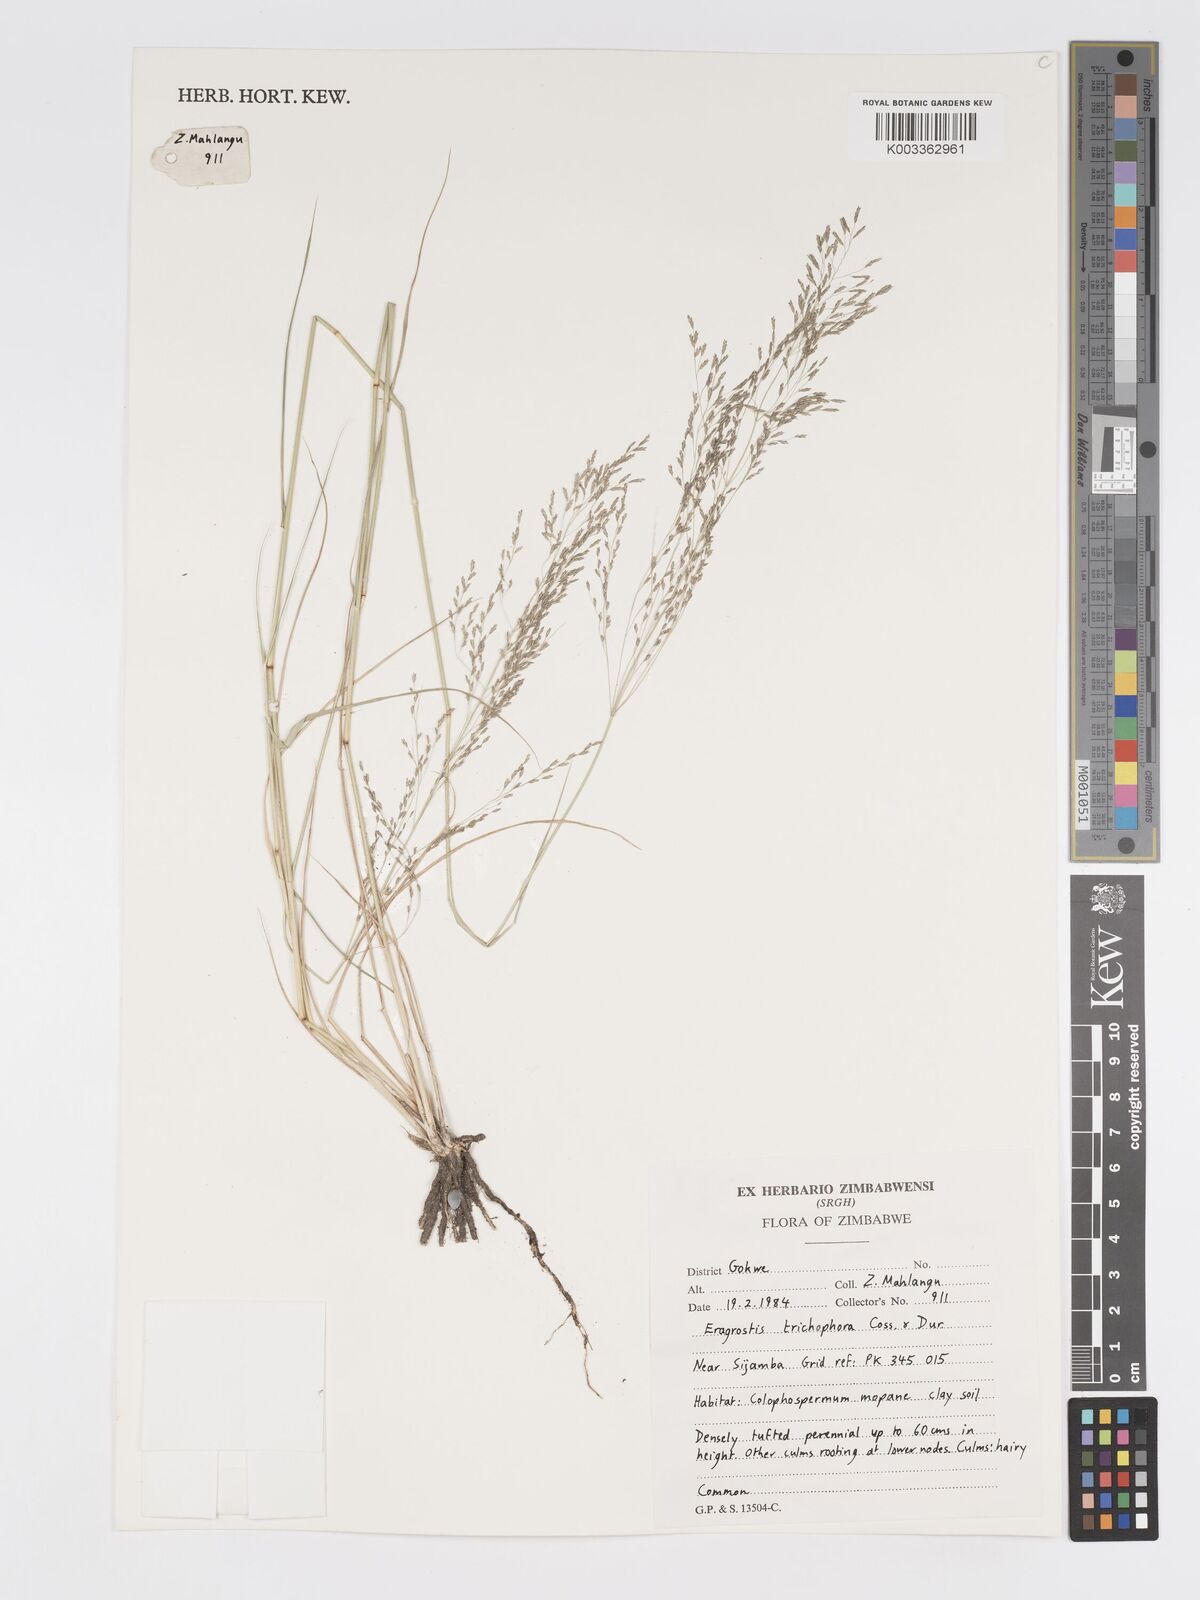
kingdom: Plantae
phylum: Tracheophyta
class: Liliopsida
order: Poales
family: Poaceae
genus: Eragrostis
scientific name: Eragrostis cylindriflora
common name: Cylinderflower lovegrass
